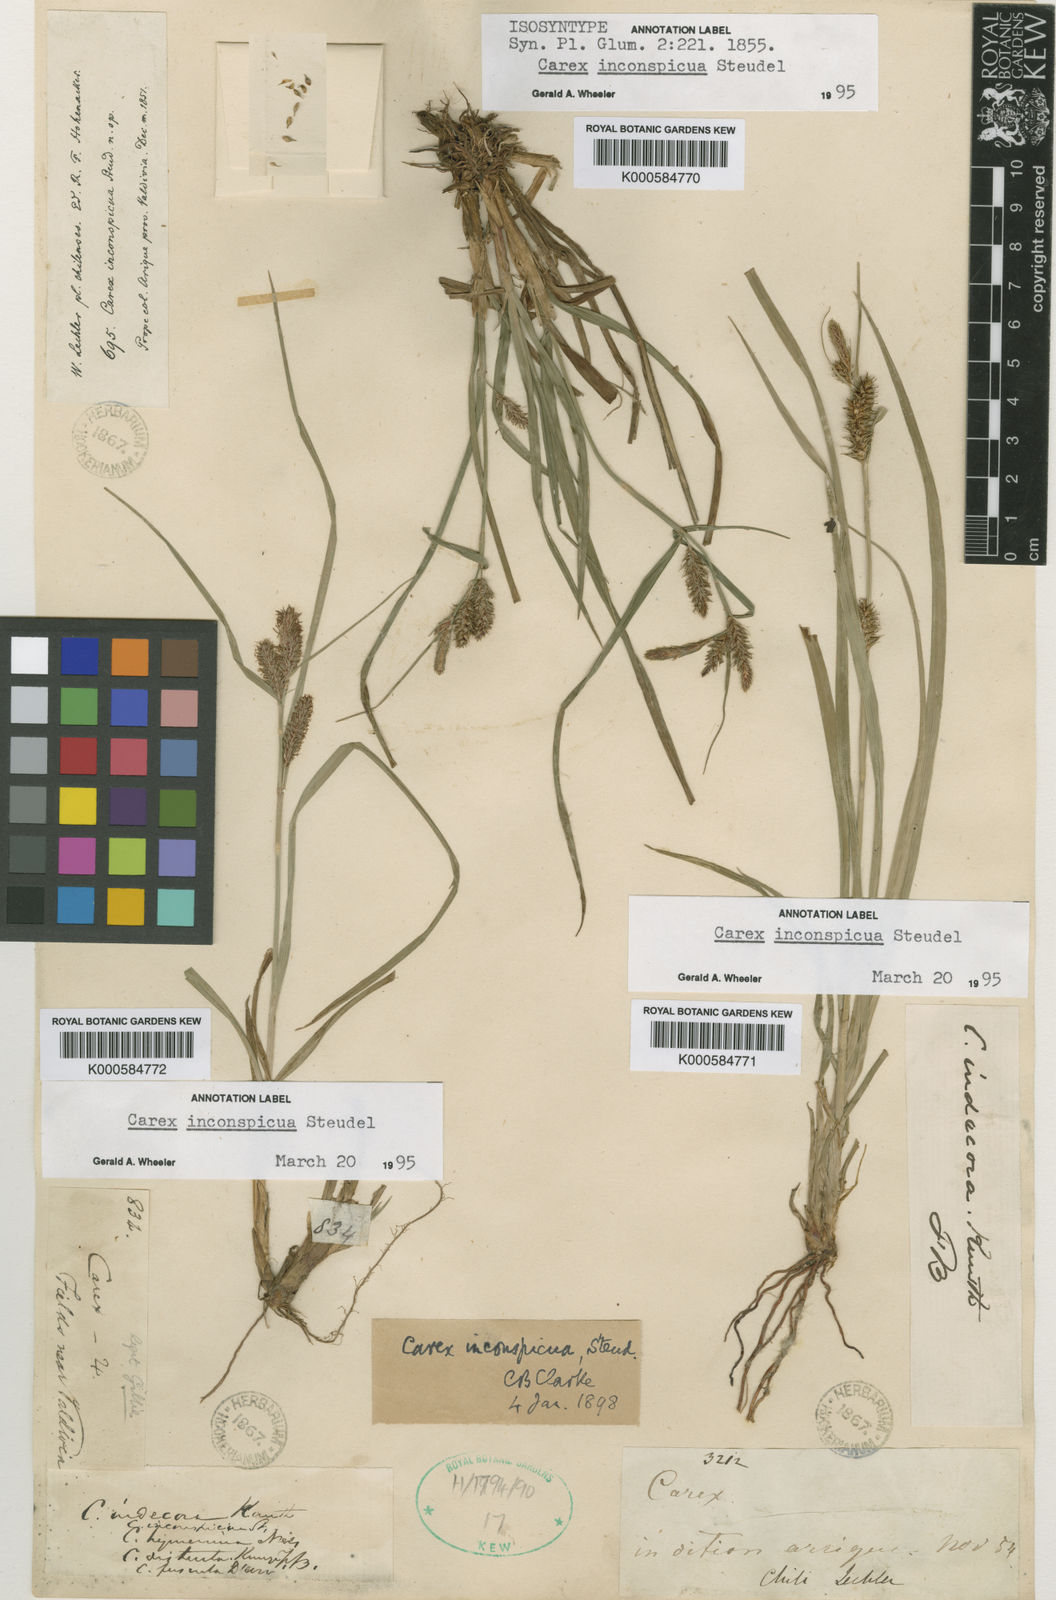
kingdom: Plantae
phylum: Tracheophyta
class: Liliopsida
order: Poales
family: Cyperaceae
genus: Carex
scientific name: Carex fuscula
